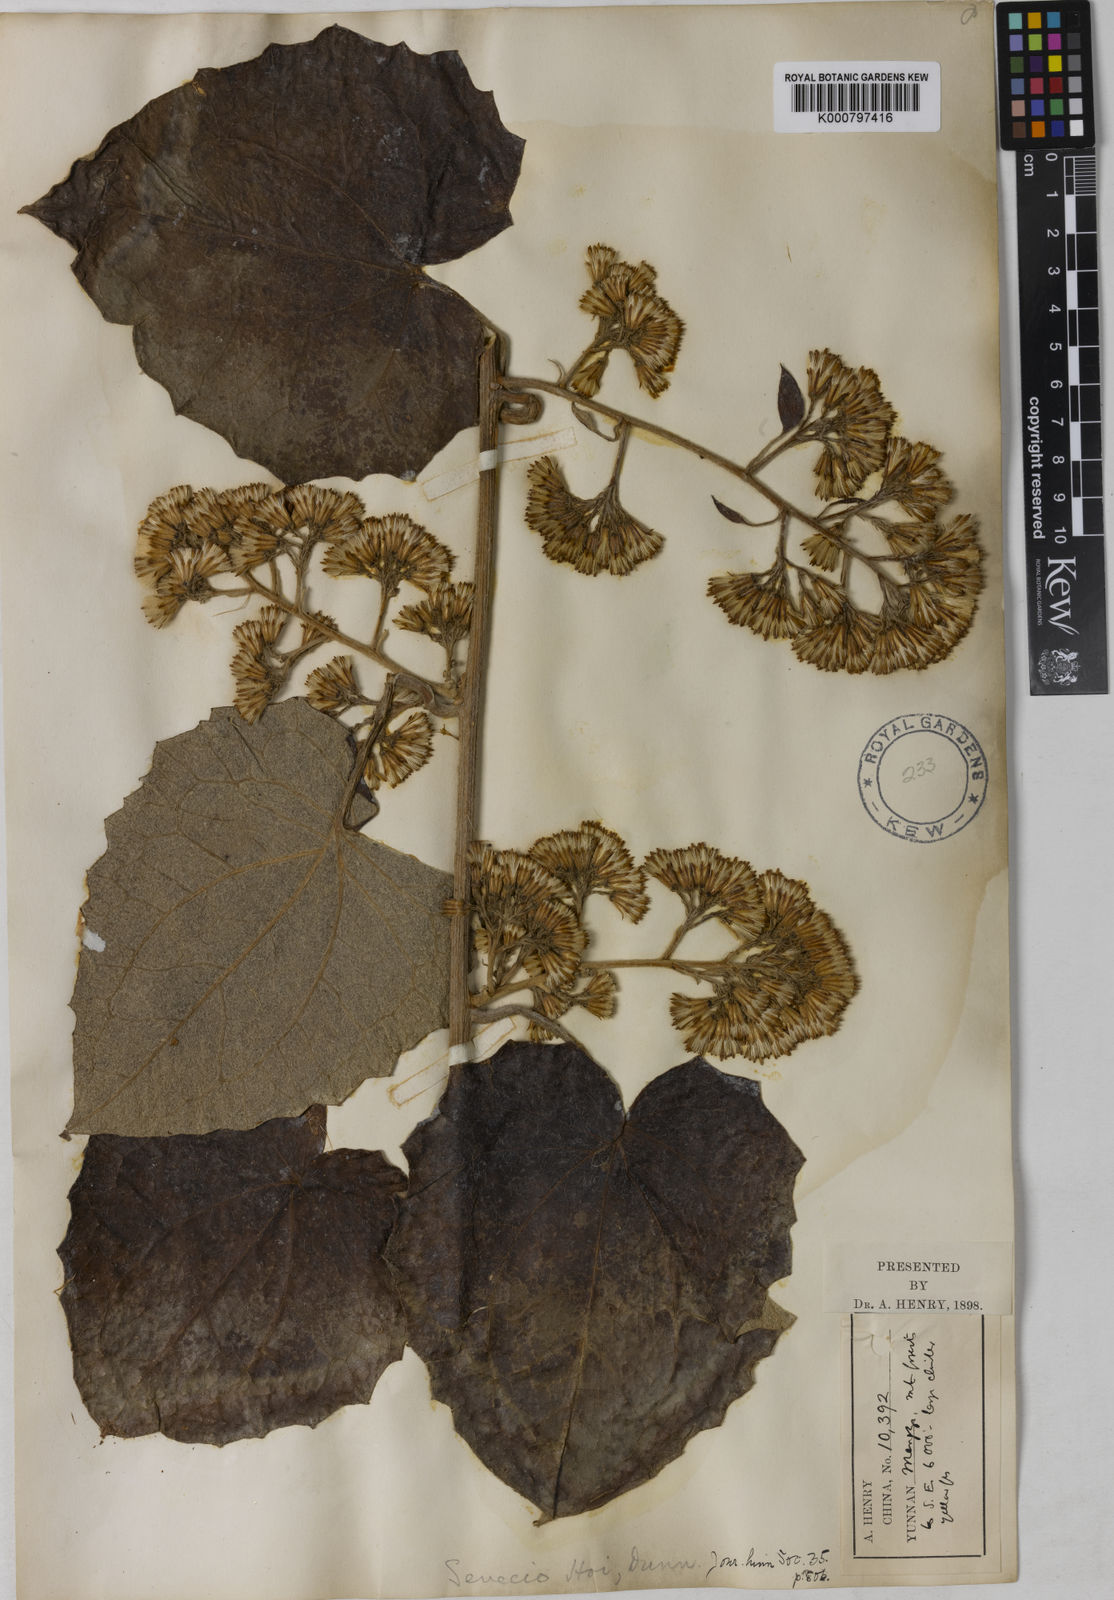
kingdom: Plantae
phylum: Tracheophyta
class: Magnoliopsida
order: Asterales
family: Asteraceae
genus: Cissampelopsis
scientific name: Cissampelopsis volubilis
